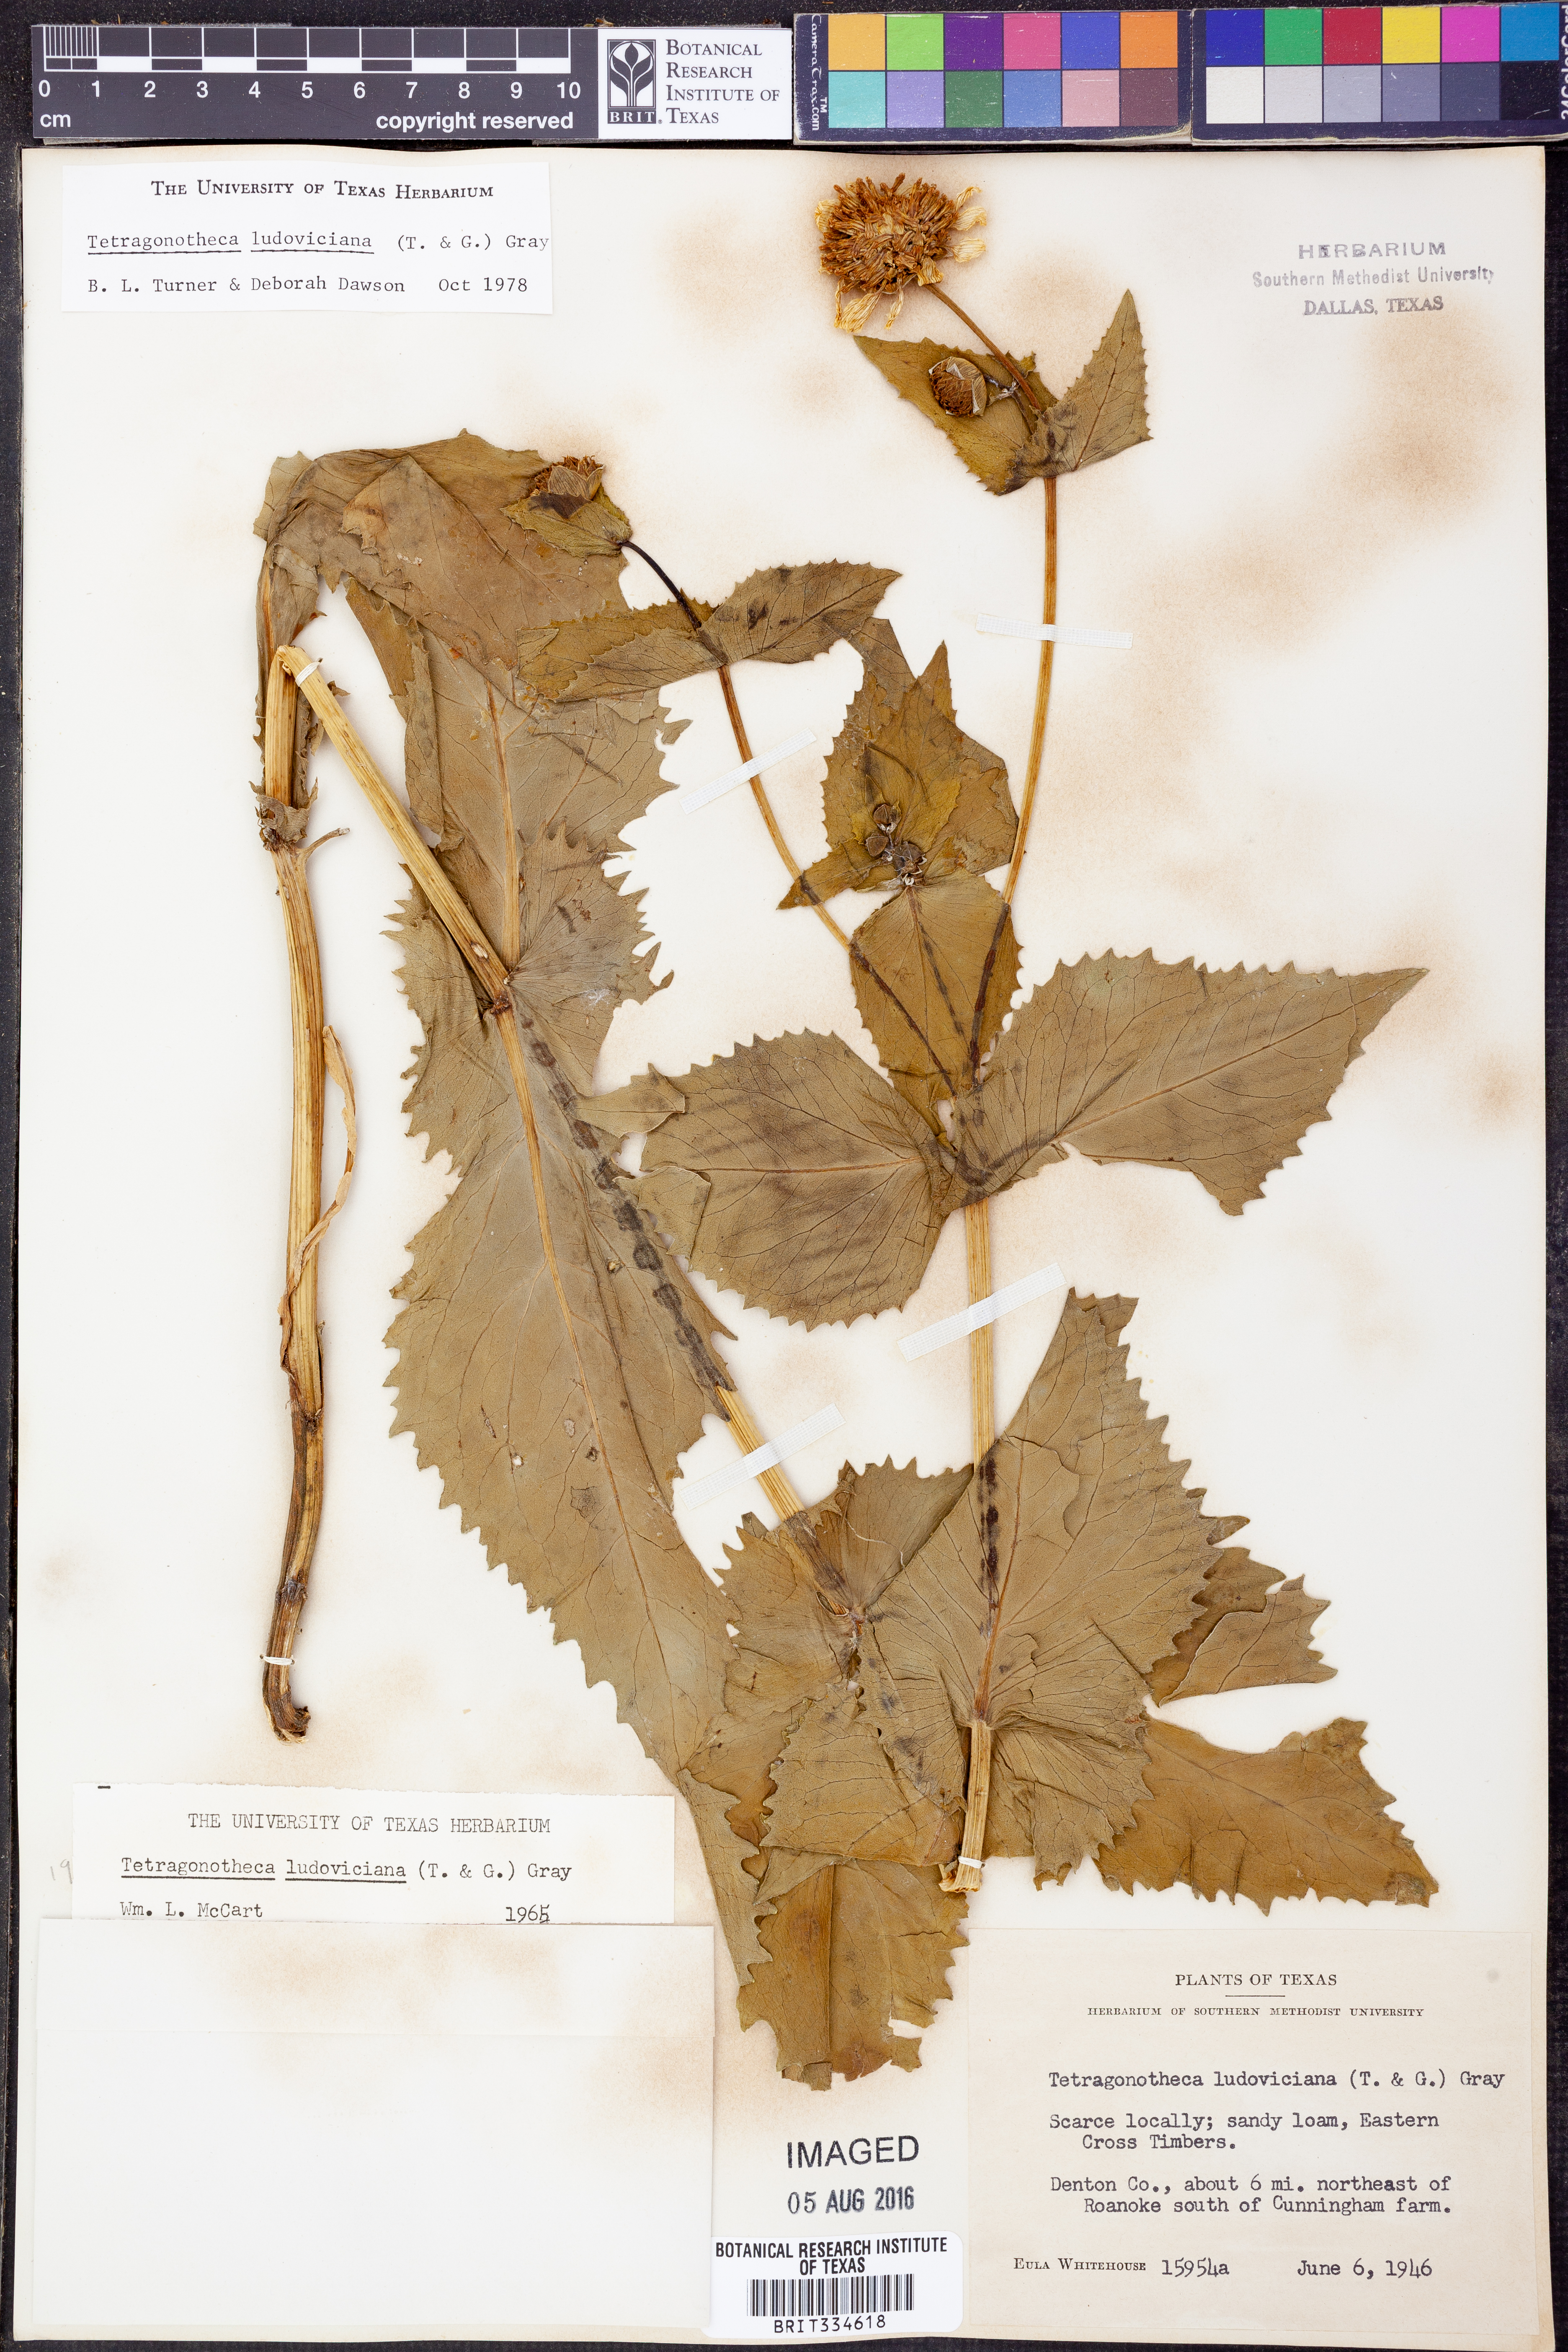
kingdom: Plantae
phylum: Tracheophyta
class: Magnoliopsida
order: Asterales
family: Asteraceae
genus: Tetragonotheca
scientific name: Tetragonotheca ludoviciana
